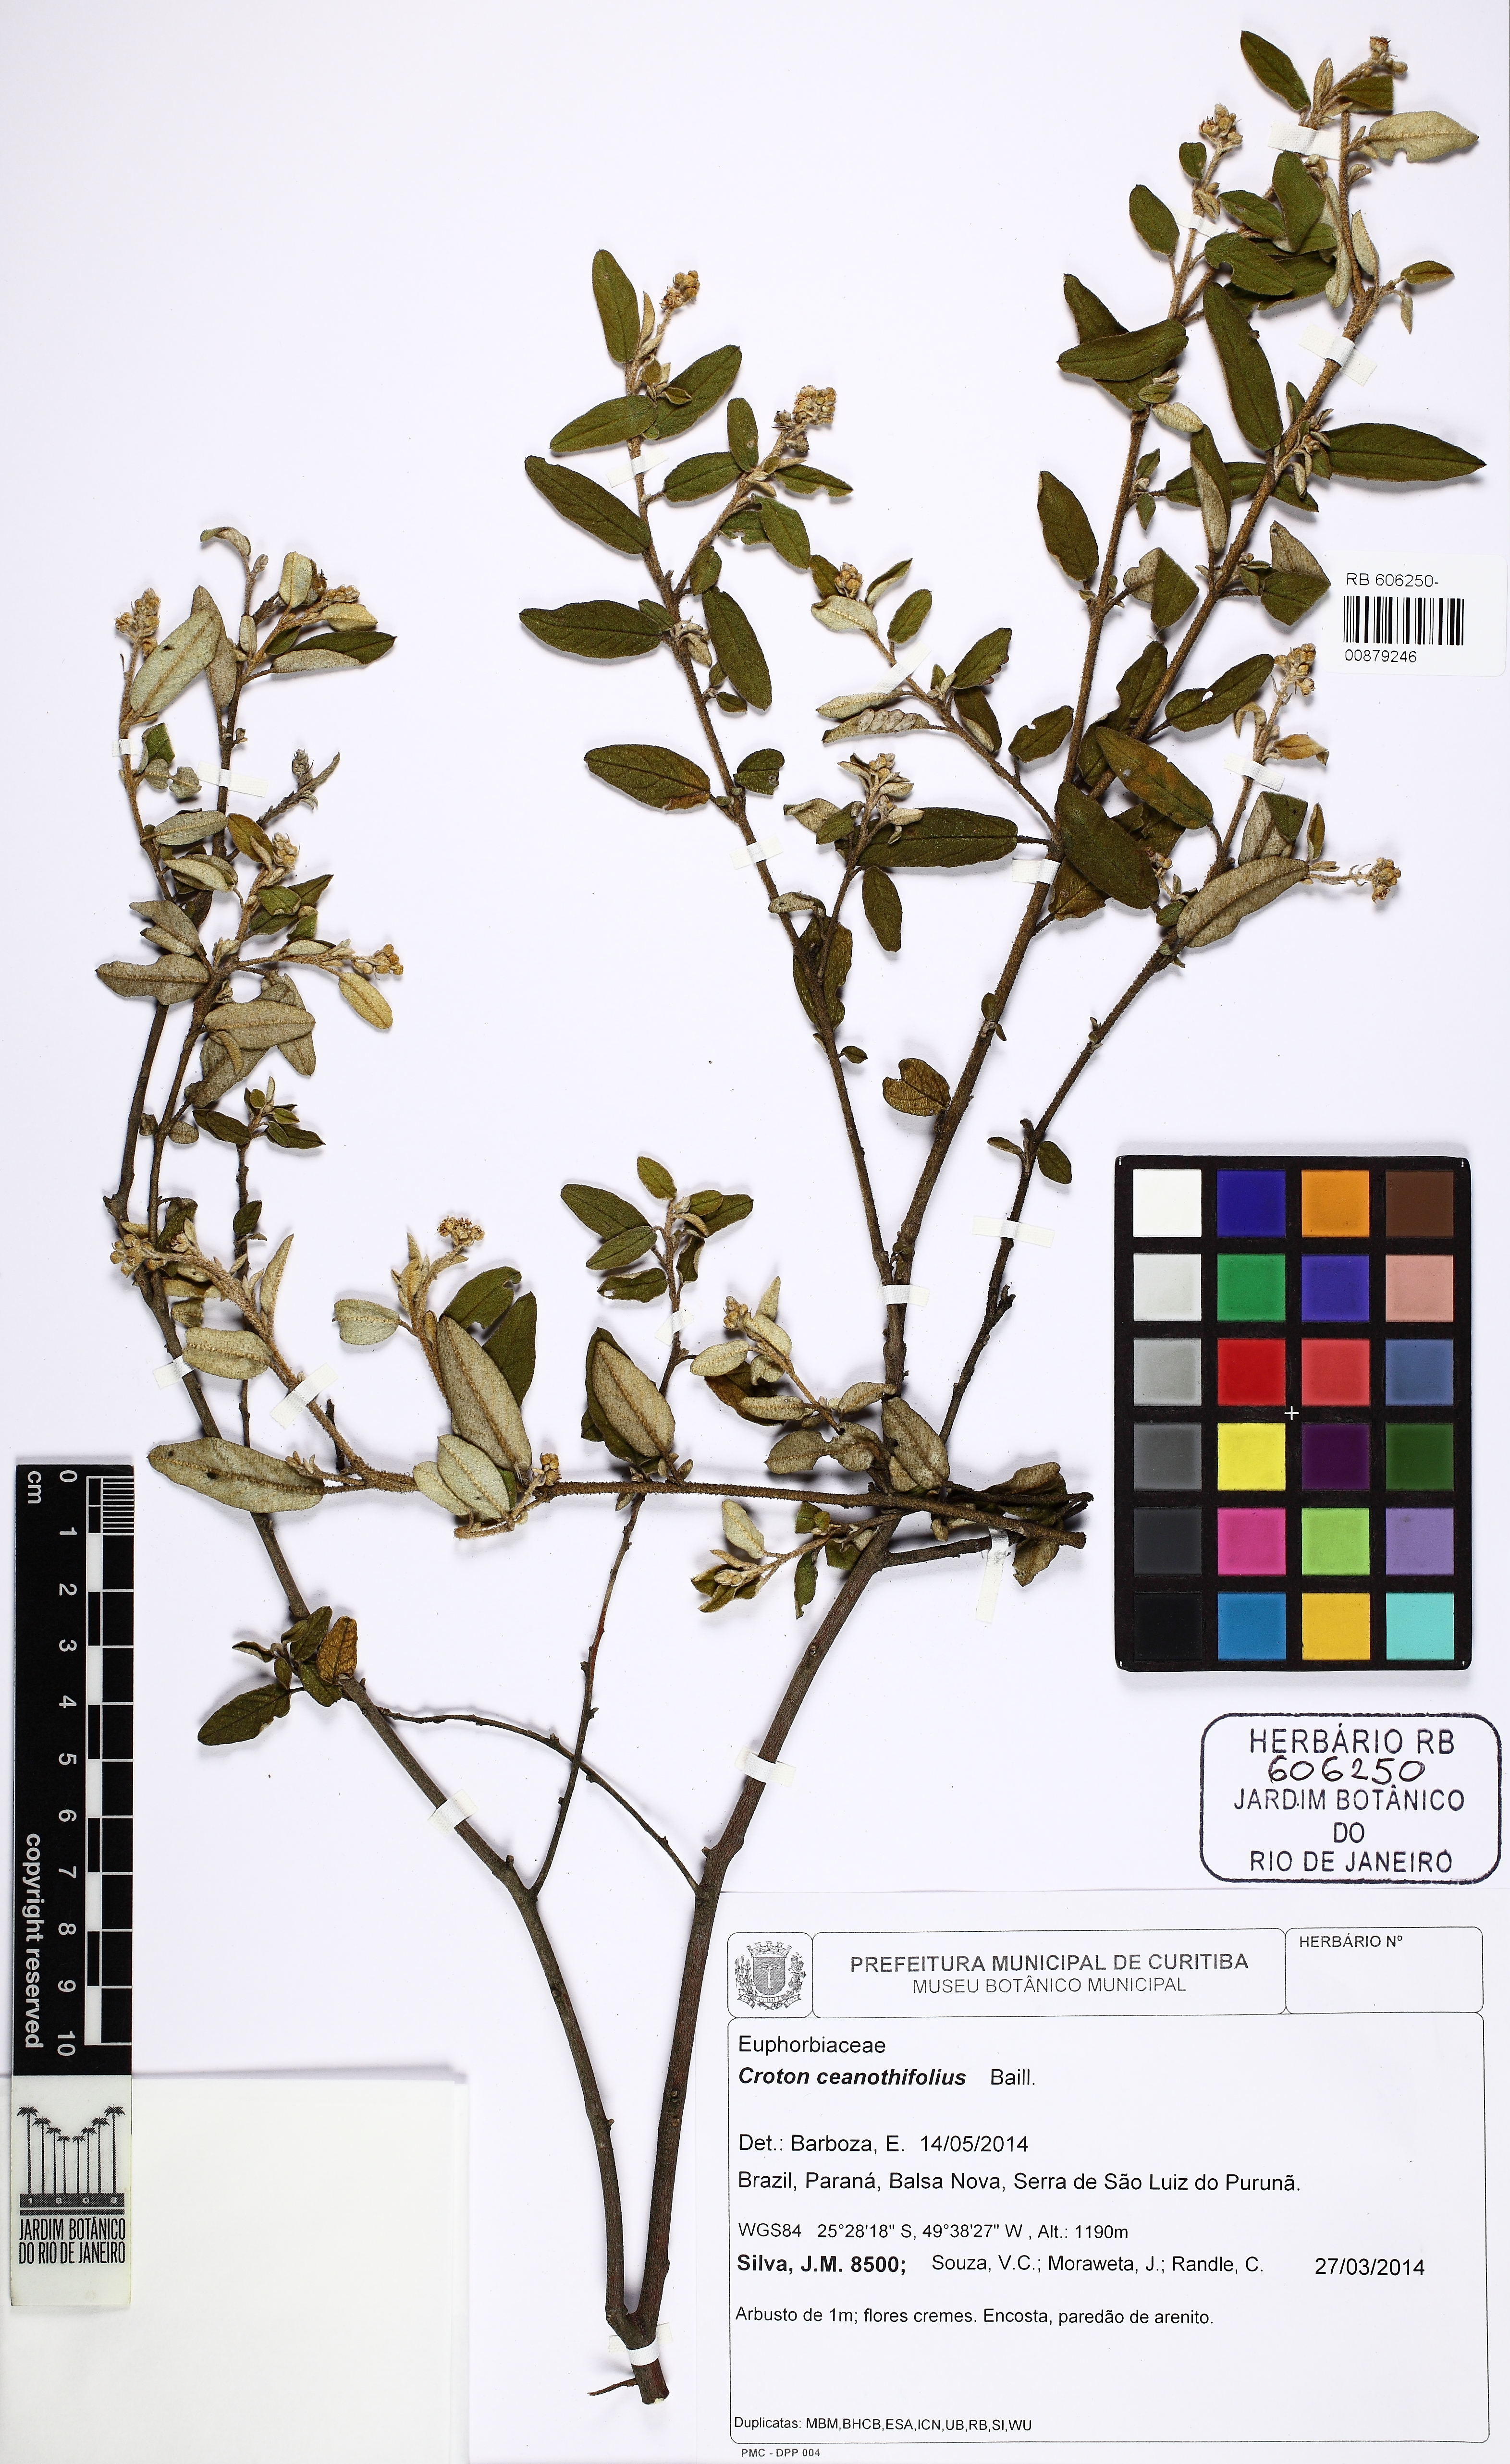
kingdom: Plantae
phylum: Tracheophyta
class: Magnoliopsida
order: Malpighiales
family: Euphorbiaceae
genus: Croton
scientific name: Croton ceanothifolius
